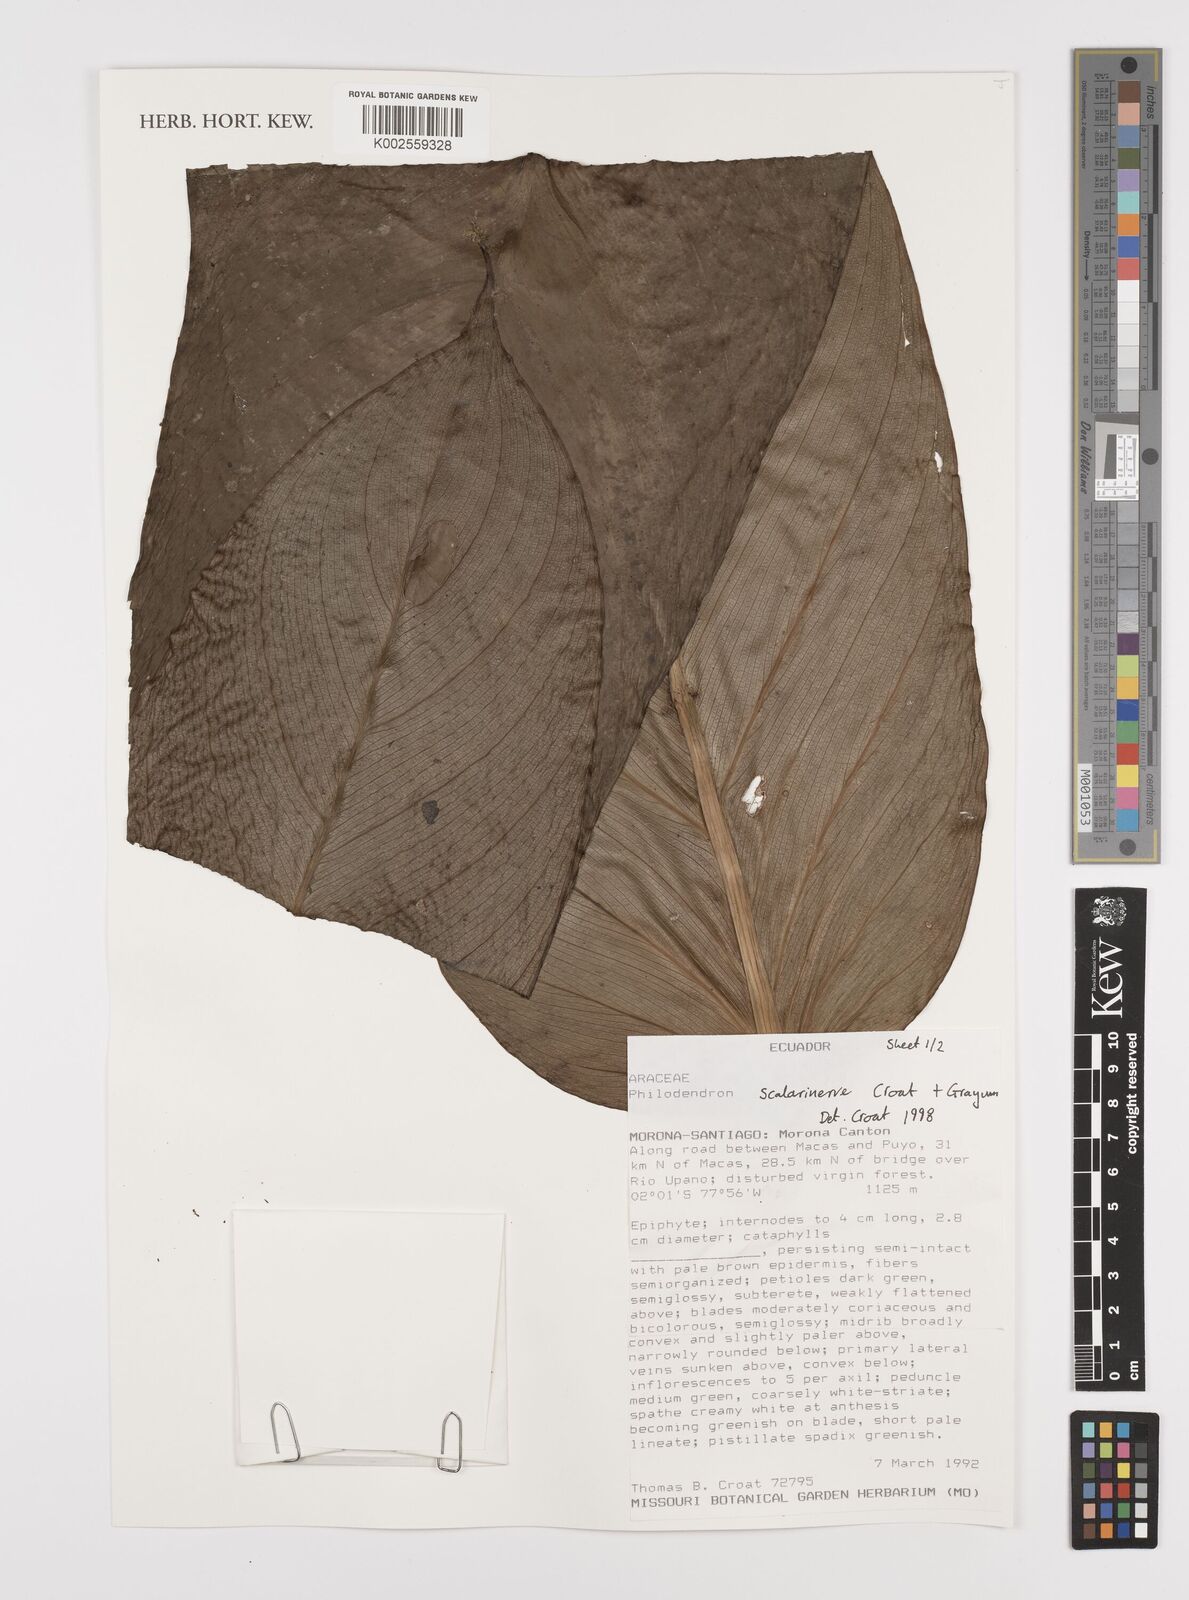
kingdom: Plantae
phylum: Tracheophyta
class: Liliopsida
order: Alismatales
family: Araceae
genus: Philodendron
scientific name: Philodendron scalarinerve
